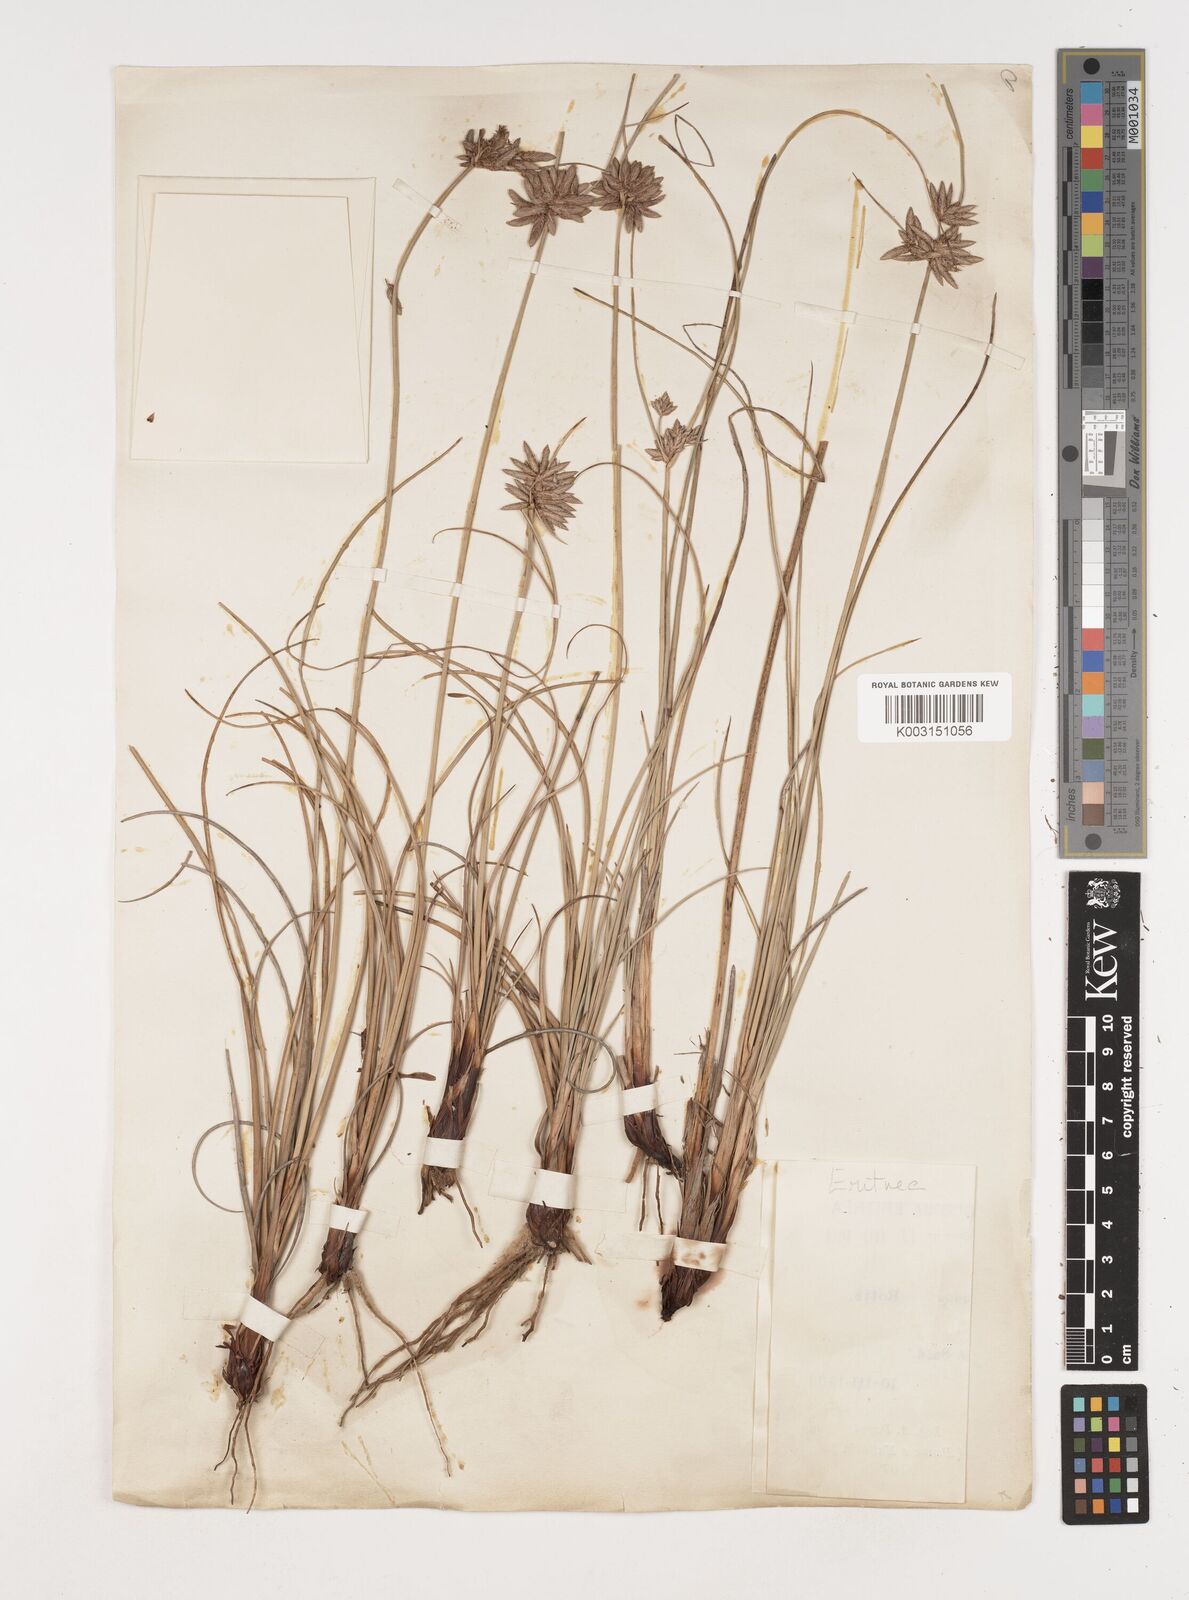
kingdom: Plantae
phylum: Tracheophyta
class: Liliopsida
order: Poales
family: Cyperaceae
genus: Cyperus
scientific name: Cyperus conglomeratus
